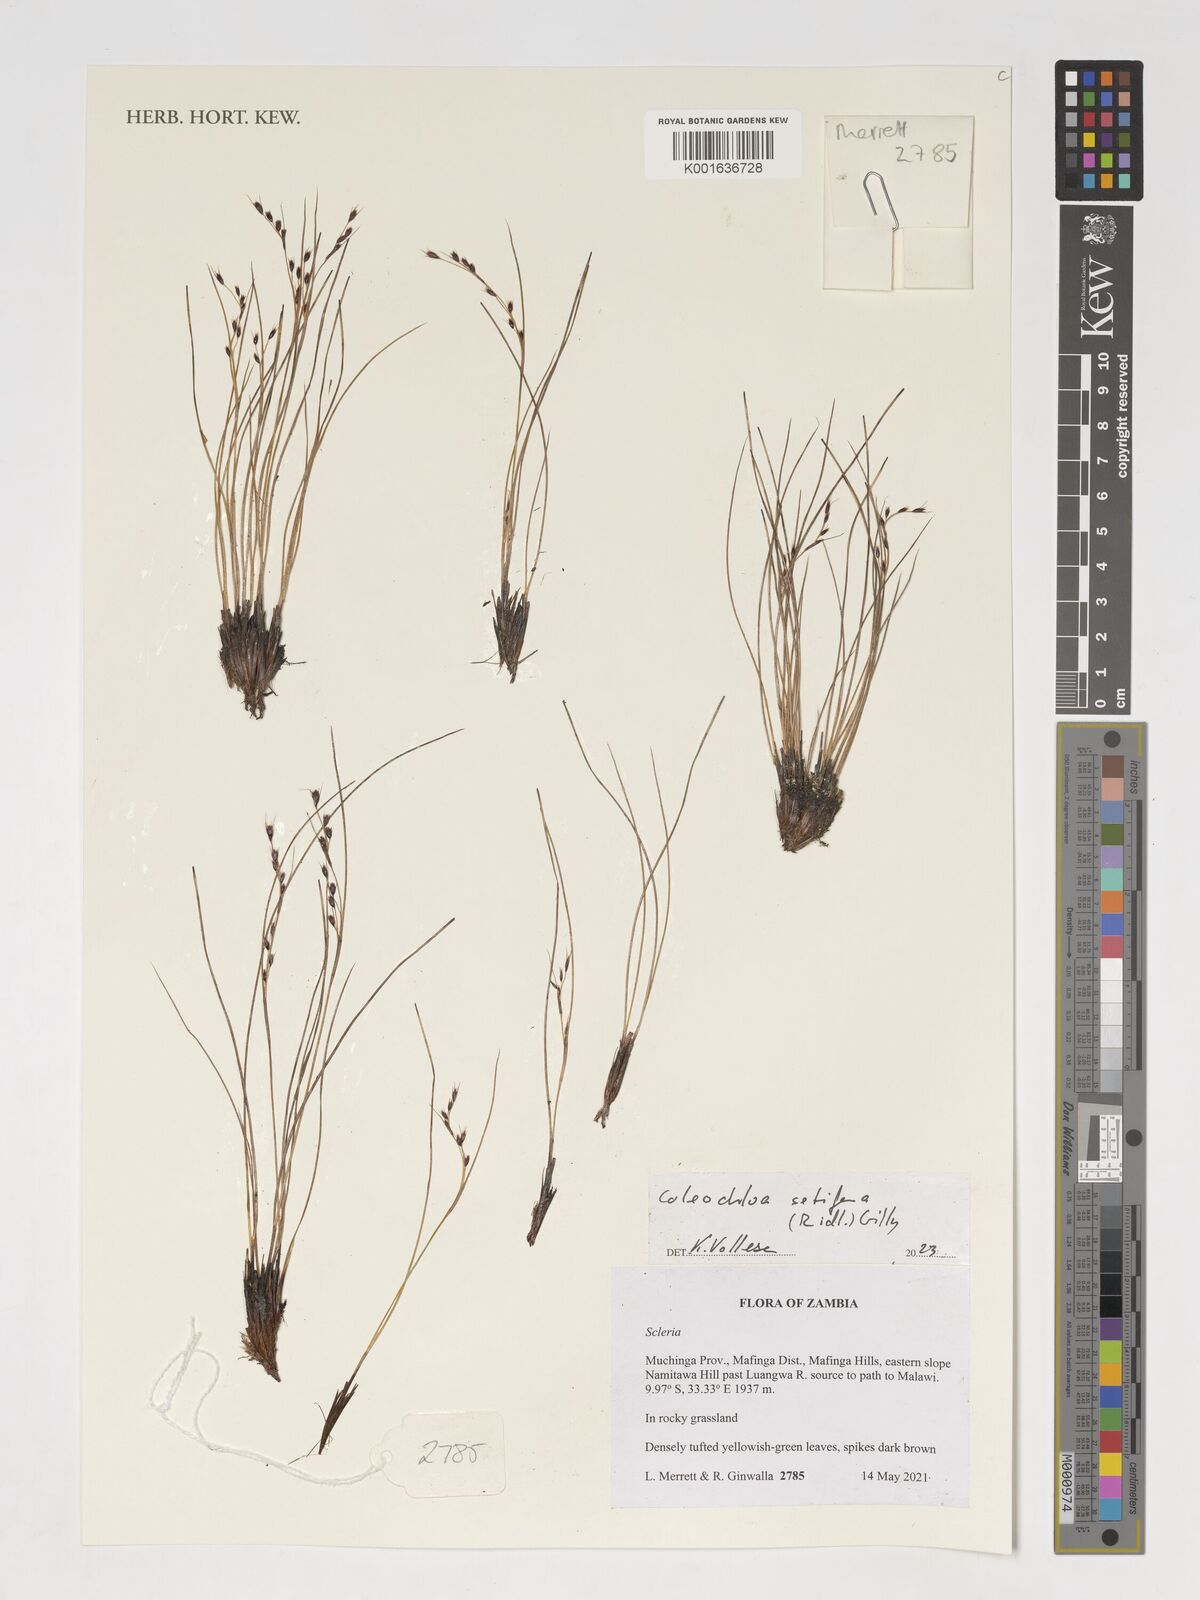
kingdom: Plantae
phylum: Tracheophyta
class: Liliopsida
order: Poales
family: Cyperaceae
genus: Coleochloa
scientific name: Coleochloa setifera
